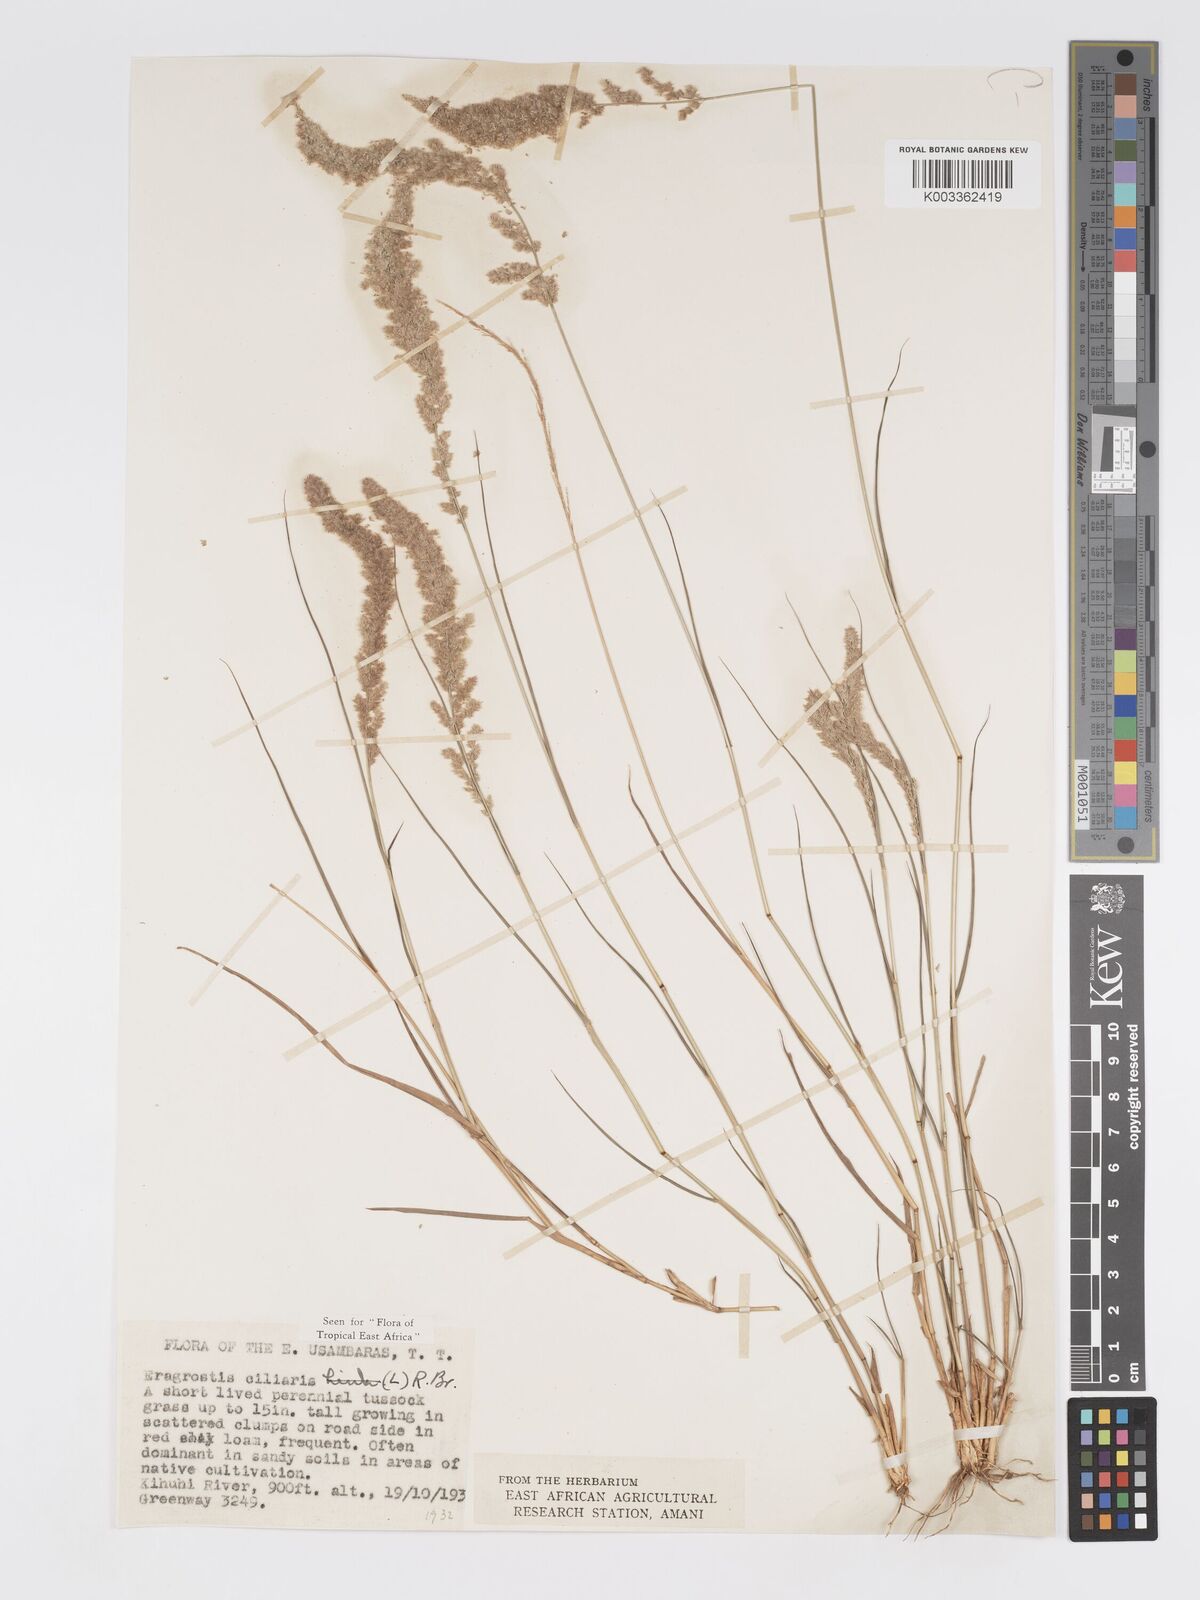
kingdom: Plantae
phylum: Tracheophyta
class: Liliopsida
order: Poales
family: Poaceae
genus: Eragrostis
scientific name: Eragrostis ciliaris
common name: Gophertail lovegrass
